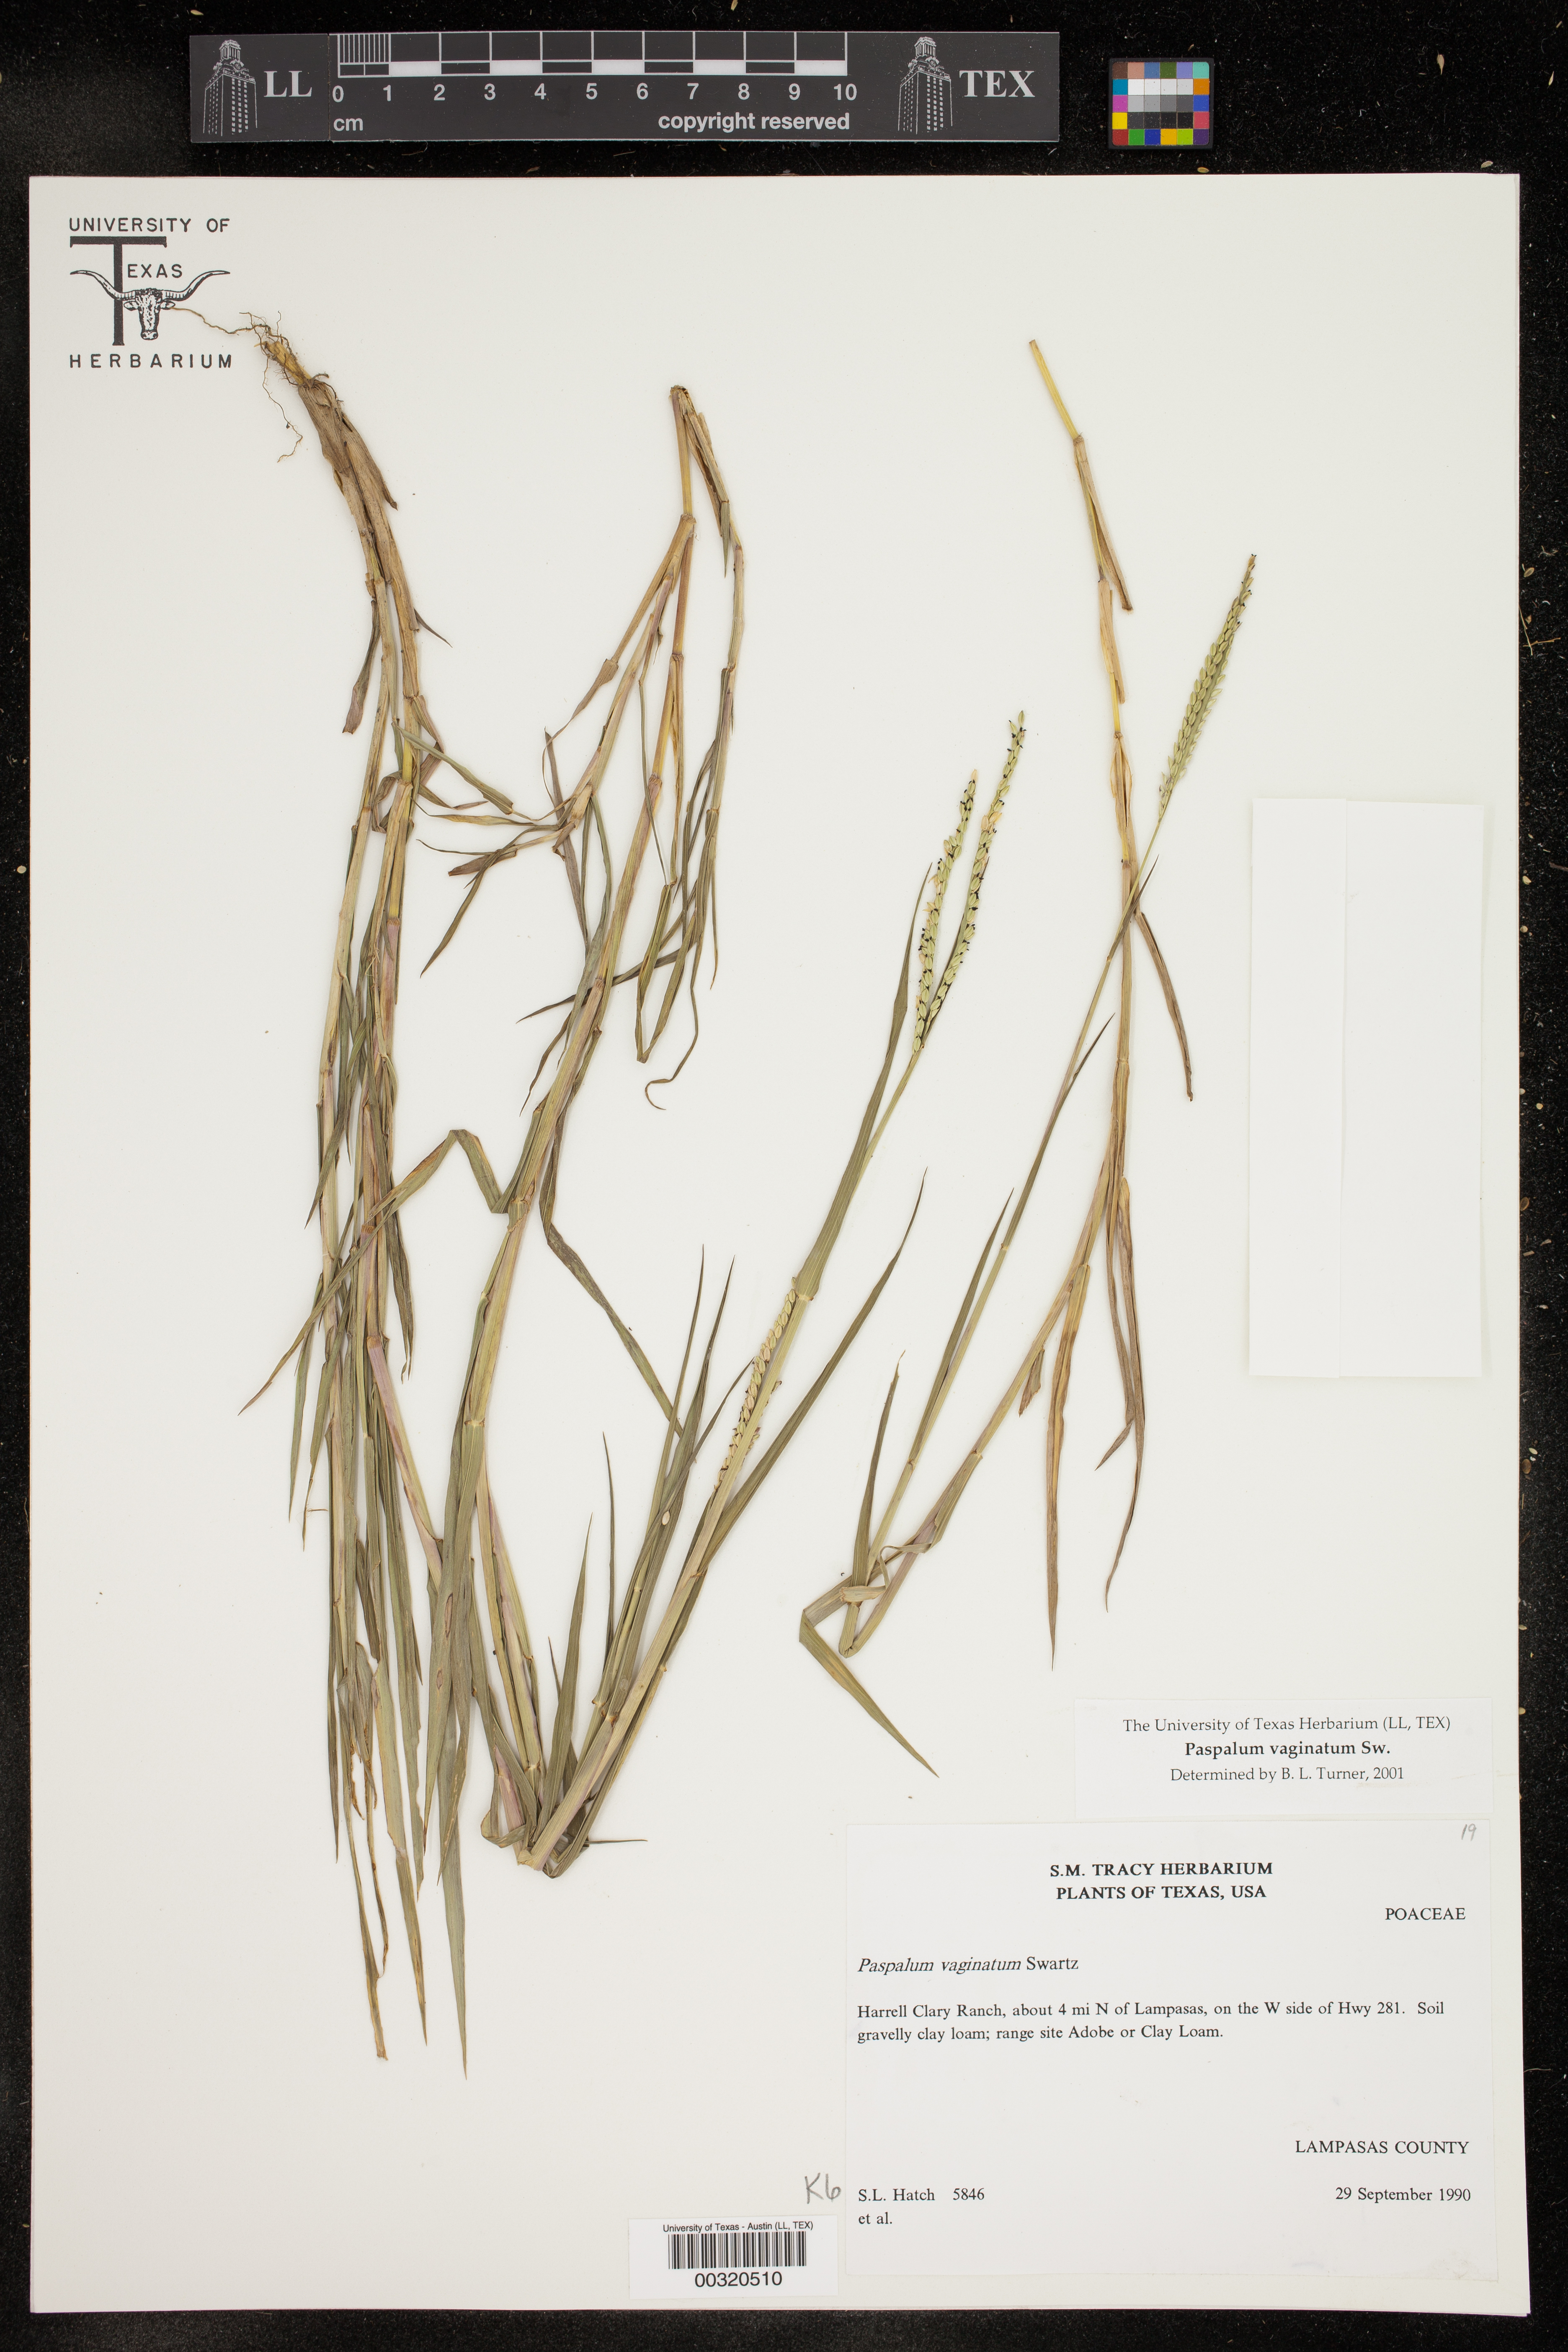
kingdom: Plantae
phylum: Tracheophyta
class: Liliopsida
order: Poales
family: Poaceae
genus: Paspalum
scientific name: Paspalum distichum
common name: Knotgrass
